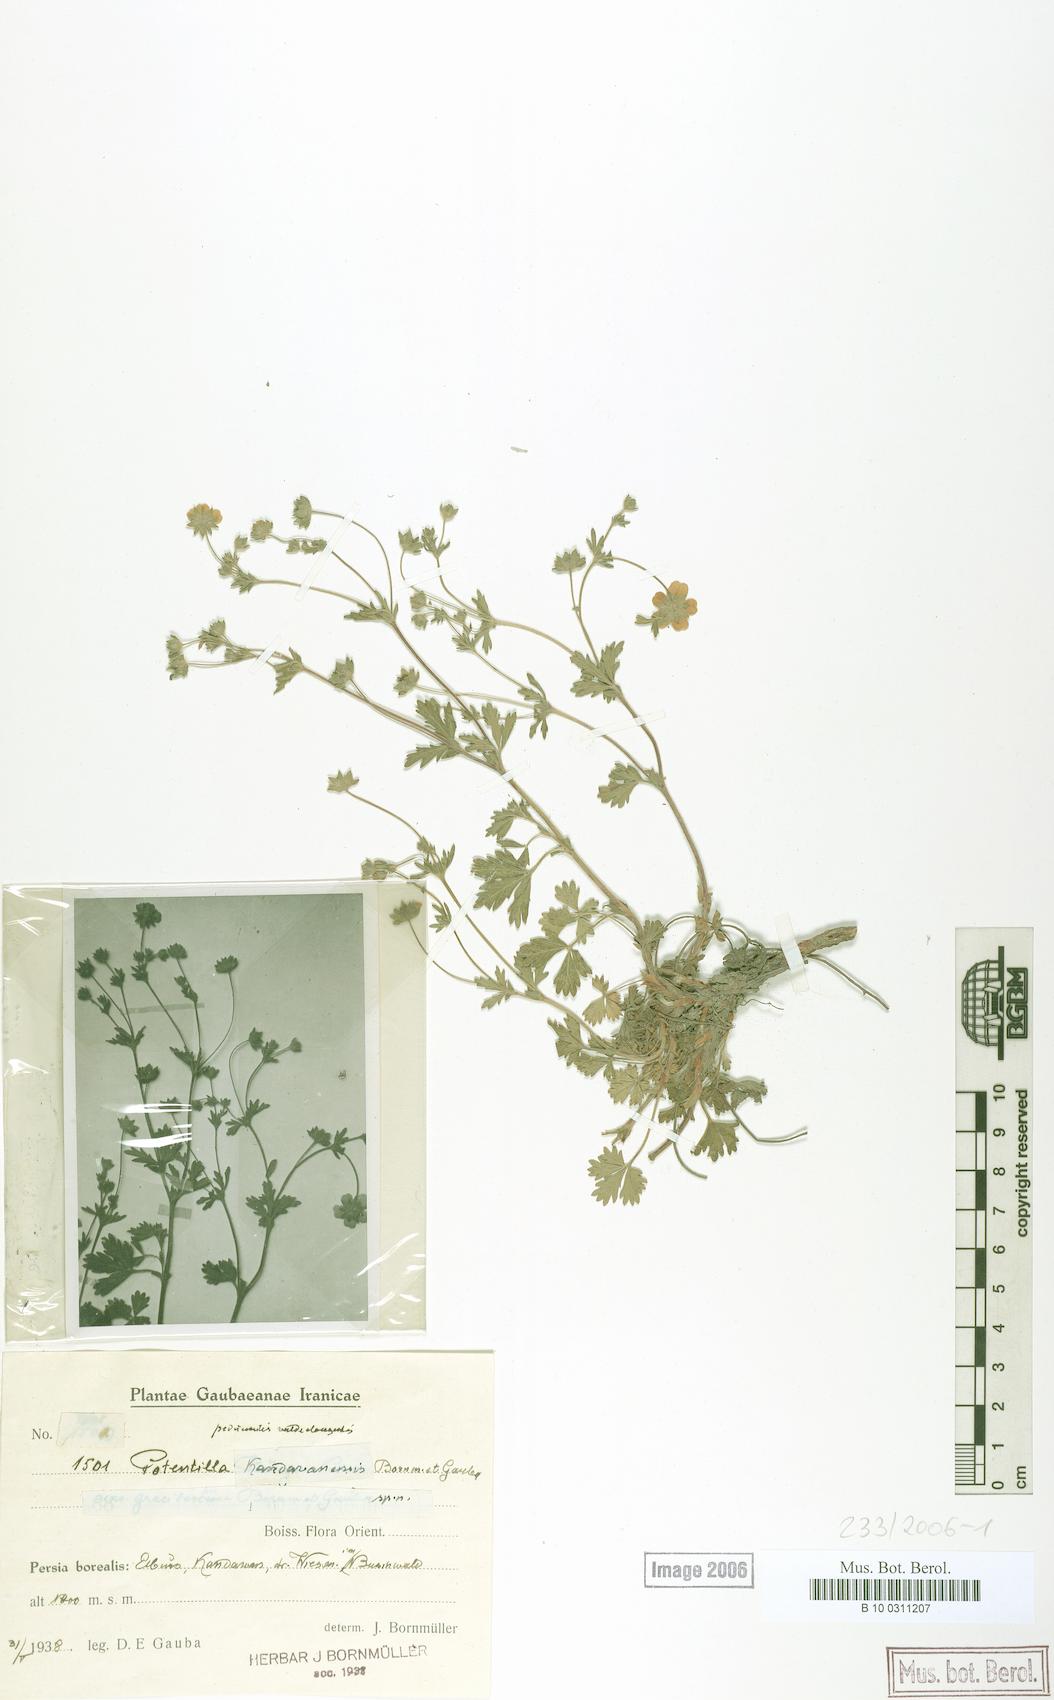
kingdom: Plantae
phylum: Tracheophyta
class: Magnoliopsida
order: Rosales
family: Rosaceae
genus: Potentilla
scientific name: Potentilla radiata
